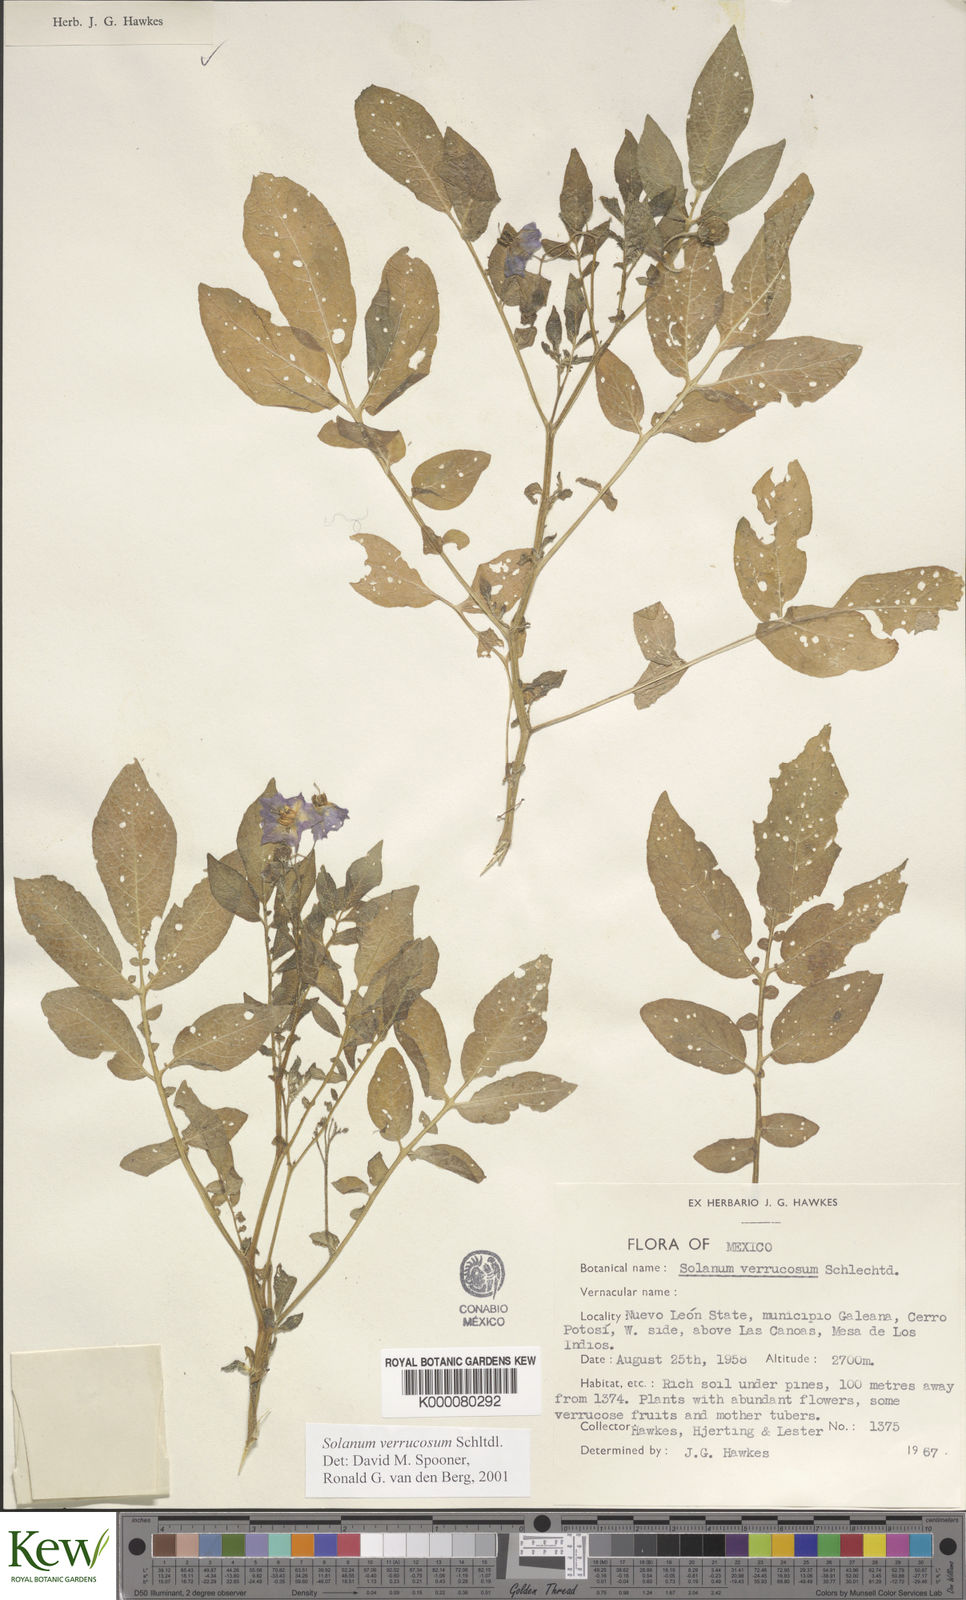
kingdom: Plantae
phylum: Tracheophyta
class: Magnoliopsida
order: Solanales
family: Solanaceae
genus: Solanum
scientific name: Solanum verrucosum
